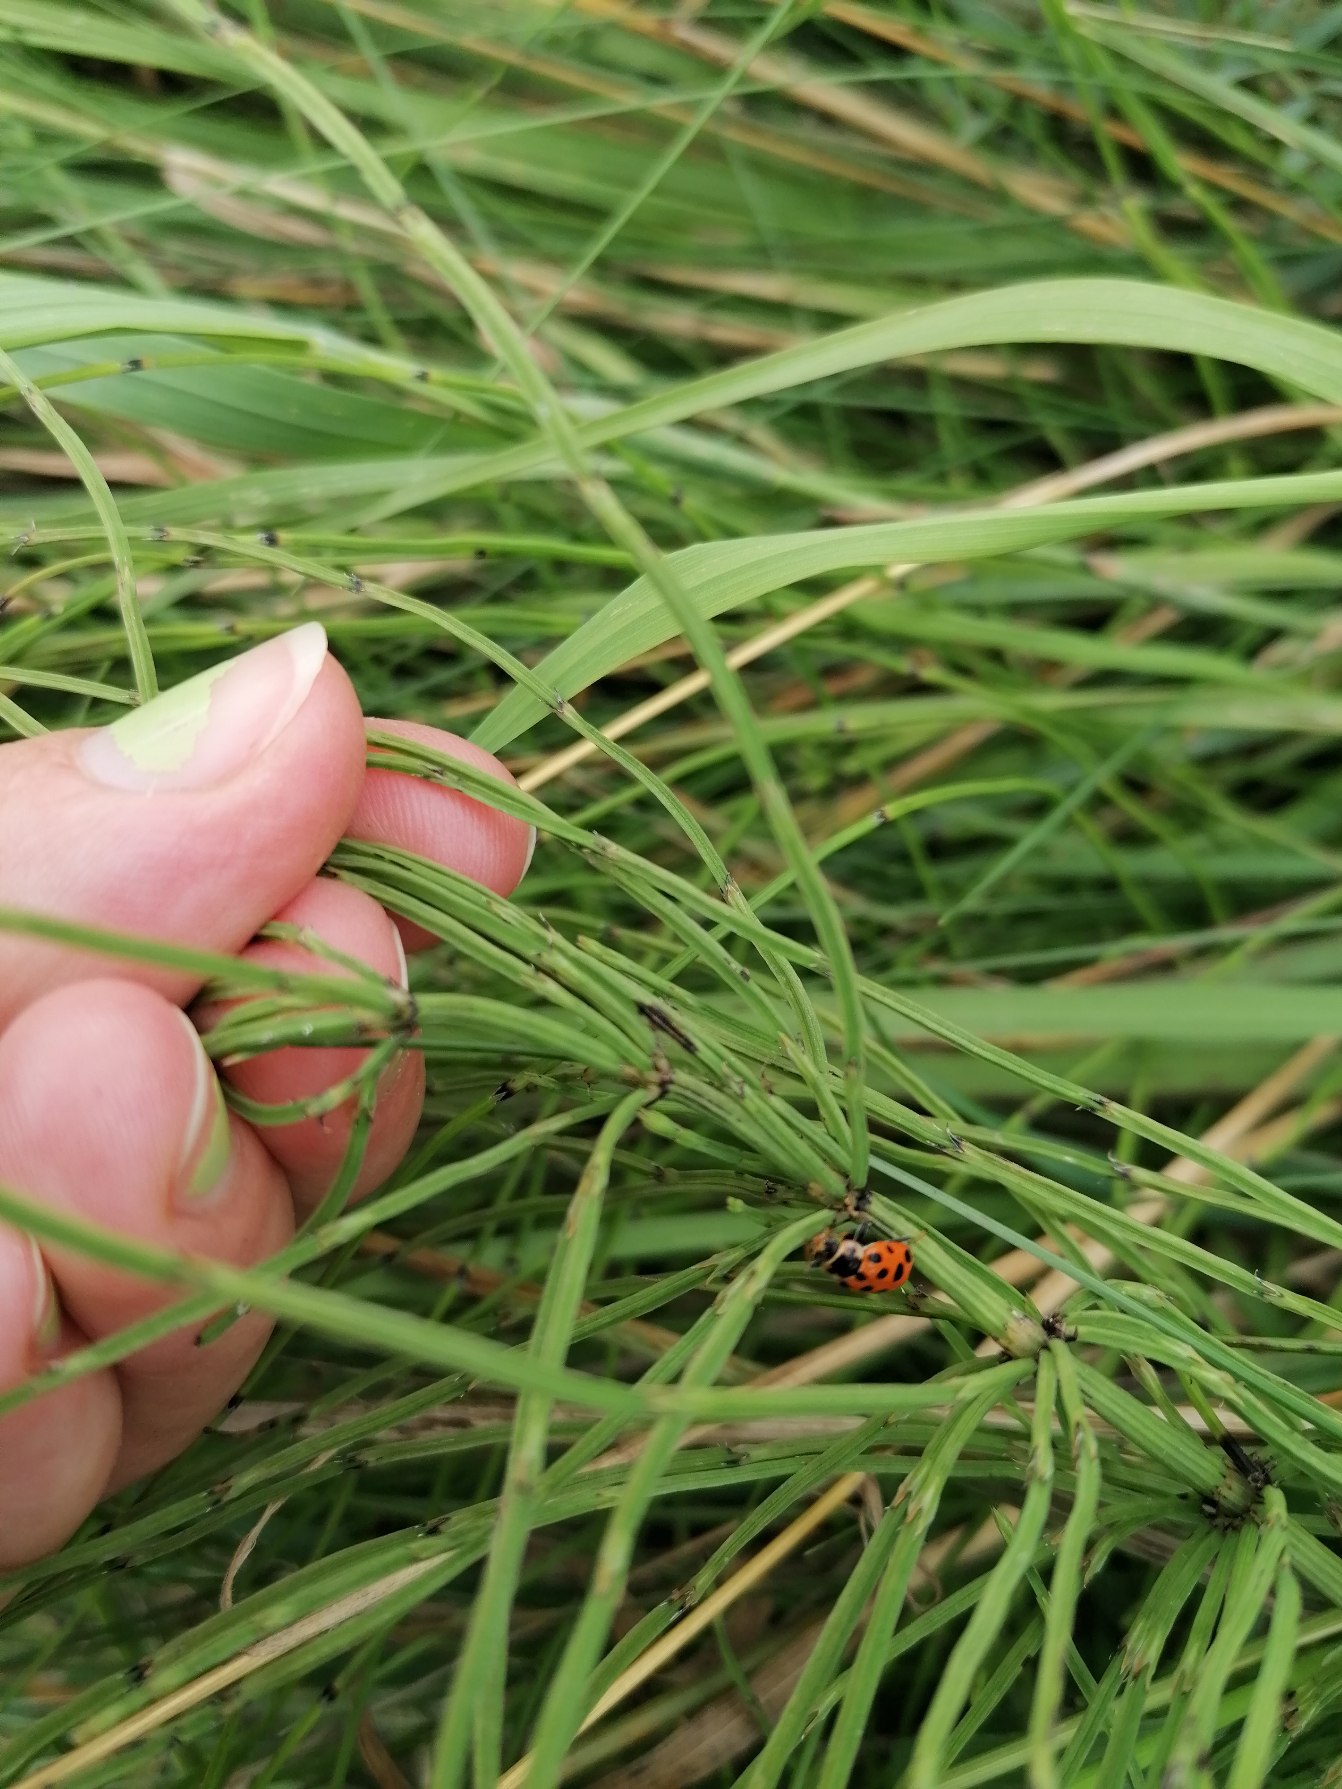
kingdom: Animalia
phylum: Arthropoda
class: Insecta
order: Coleoptera
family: Coccinellidae
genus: Hippodamia
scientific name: Hippodamia tredecimpunctata
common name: Trettenplettet mariehøne
